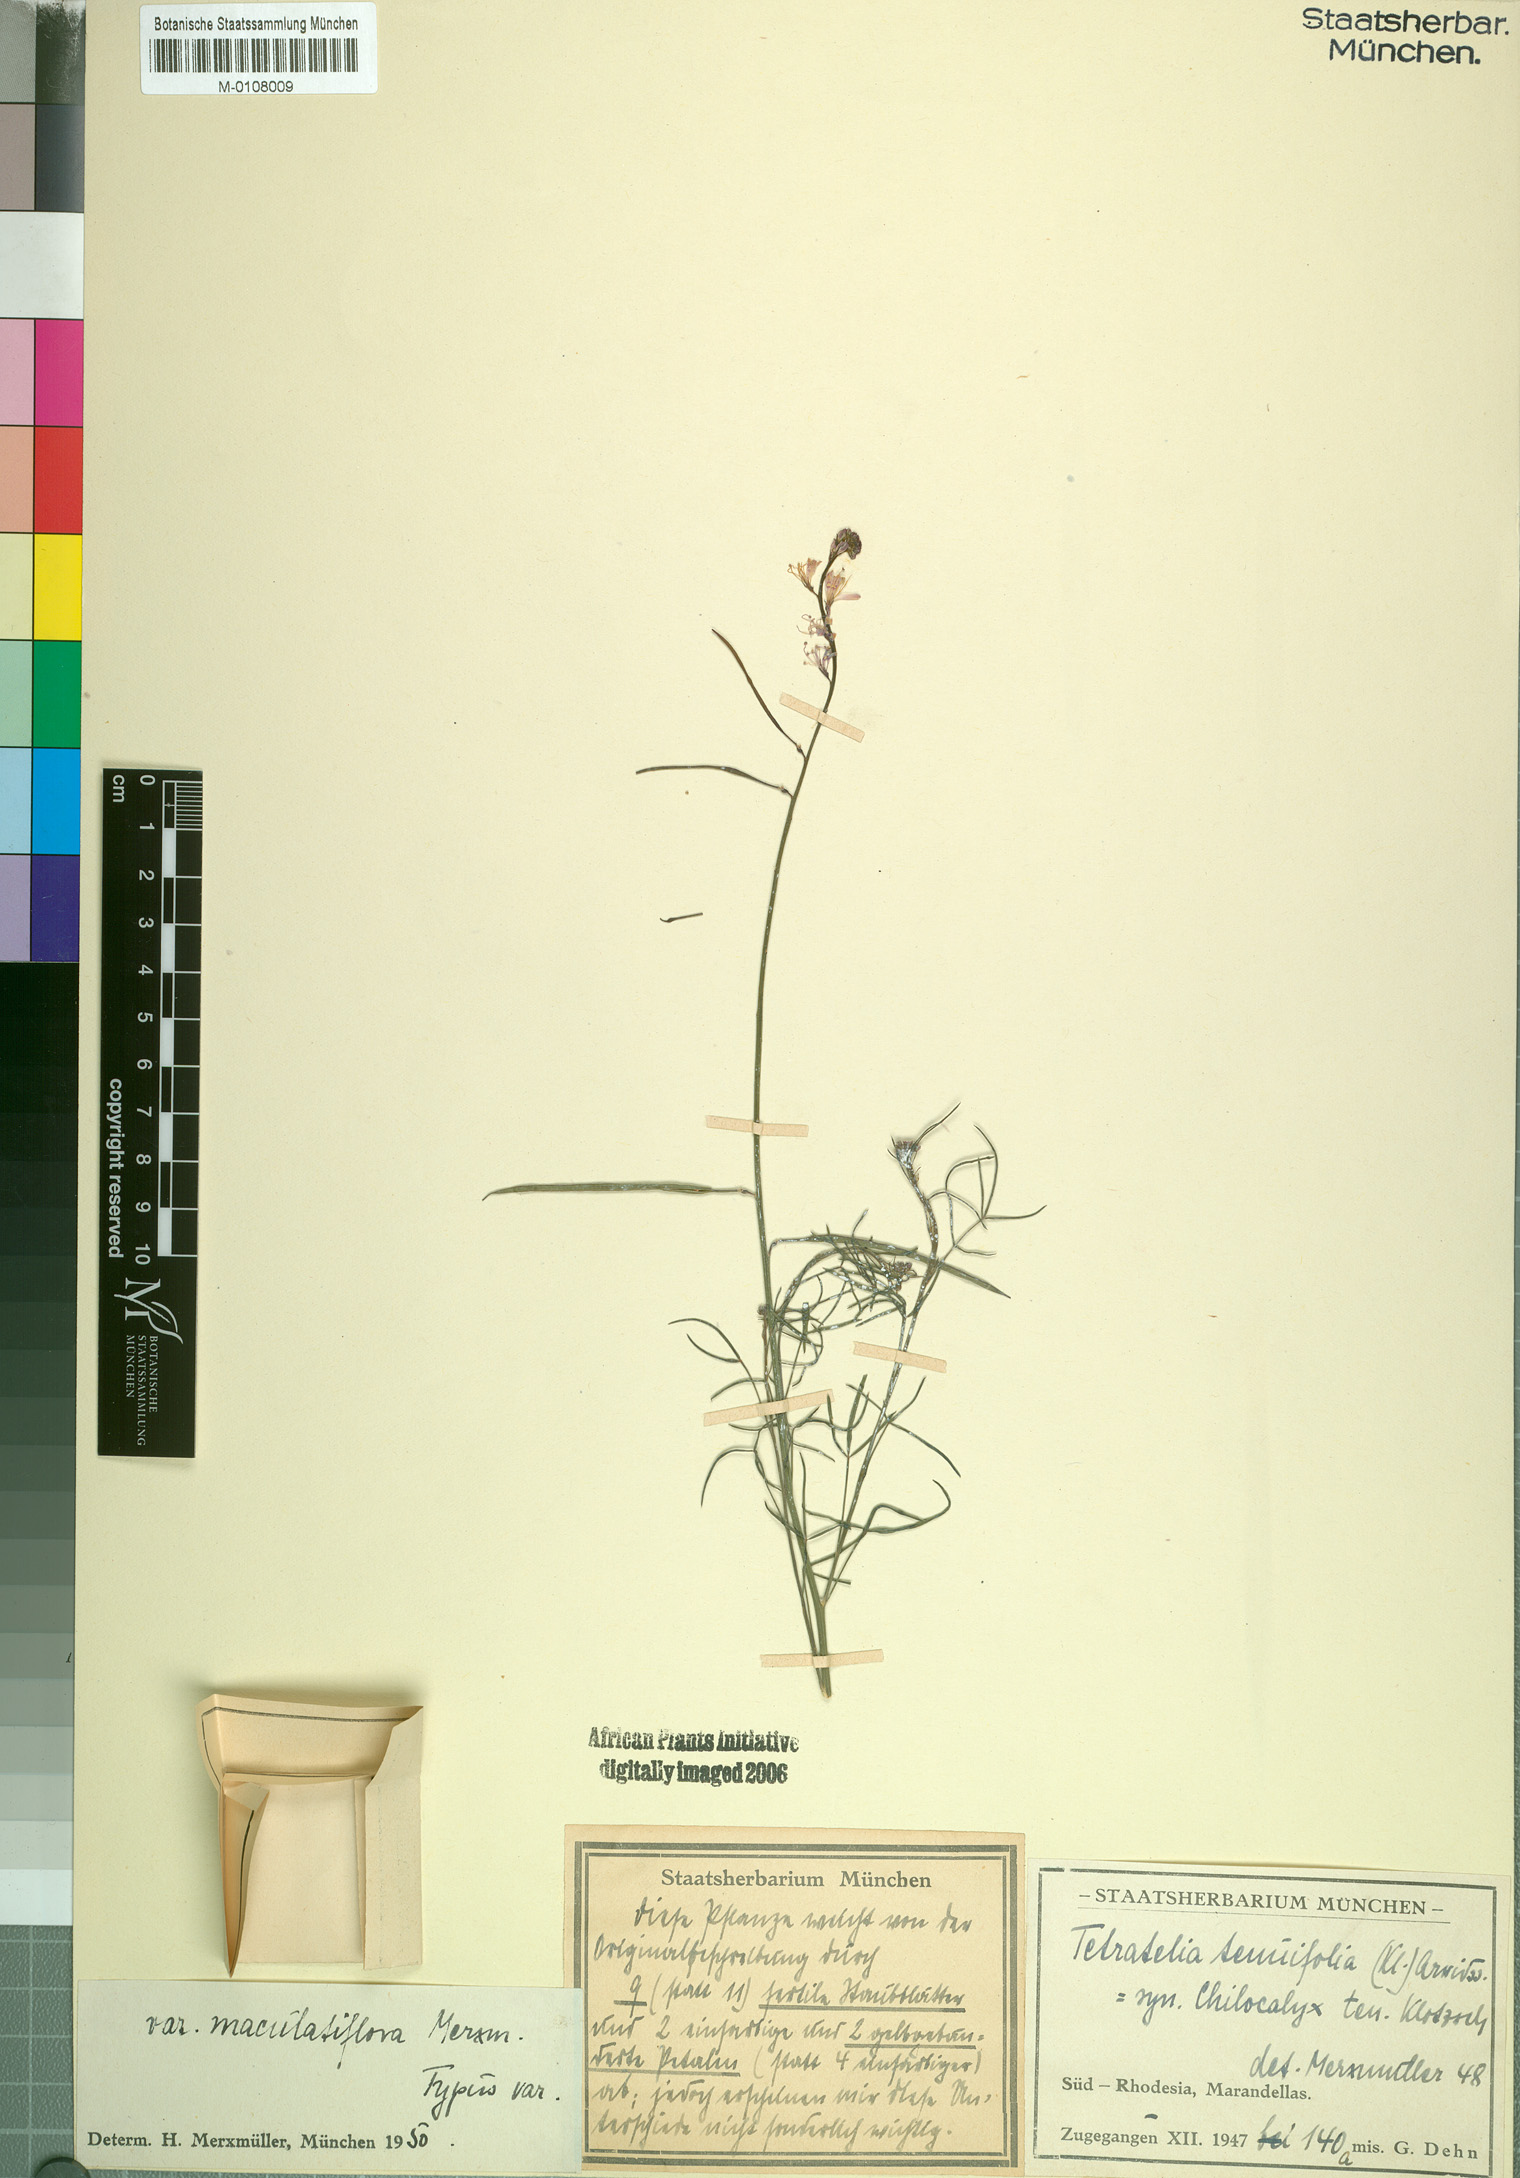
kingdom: Plantae
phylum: Tracheophyta
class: Magnoliopsida
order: Brassicales
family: Cleomaceae
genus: Sieruela
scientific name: Sieruela macrophylla
